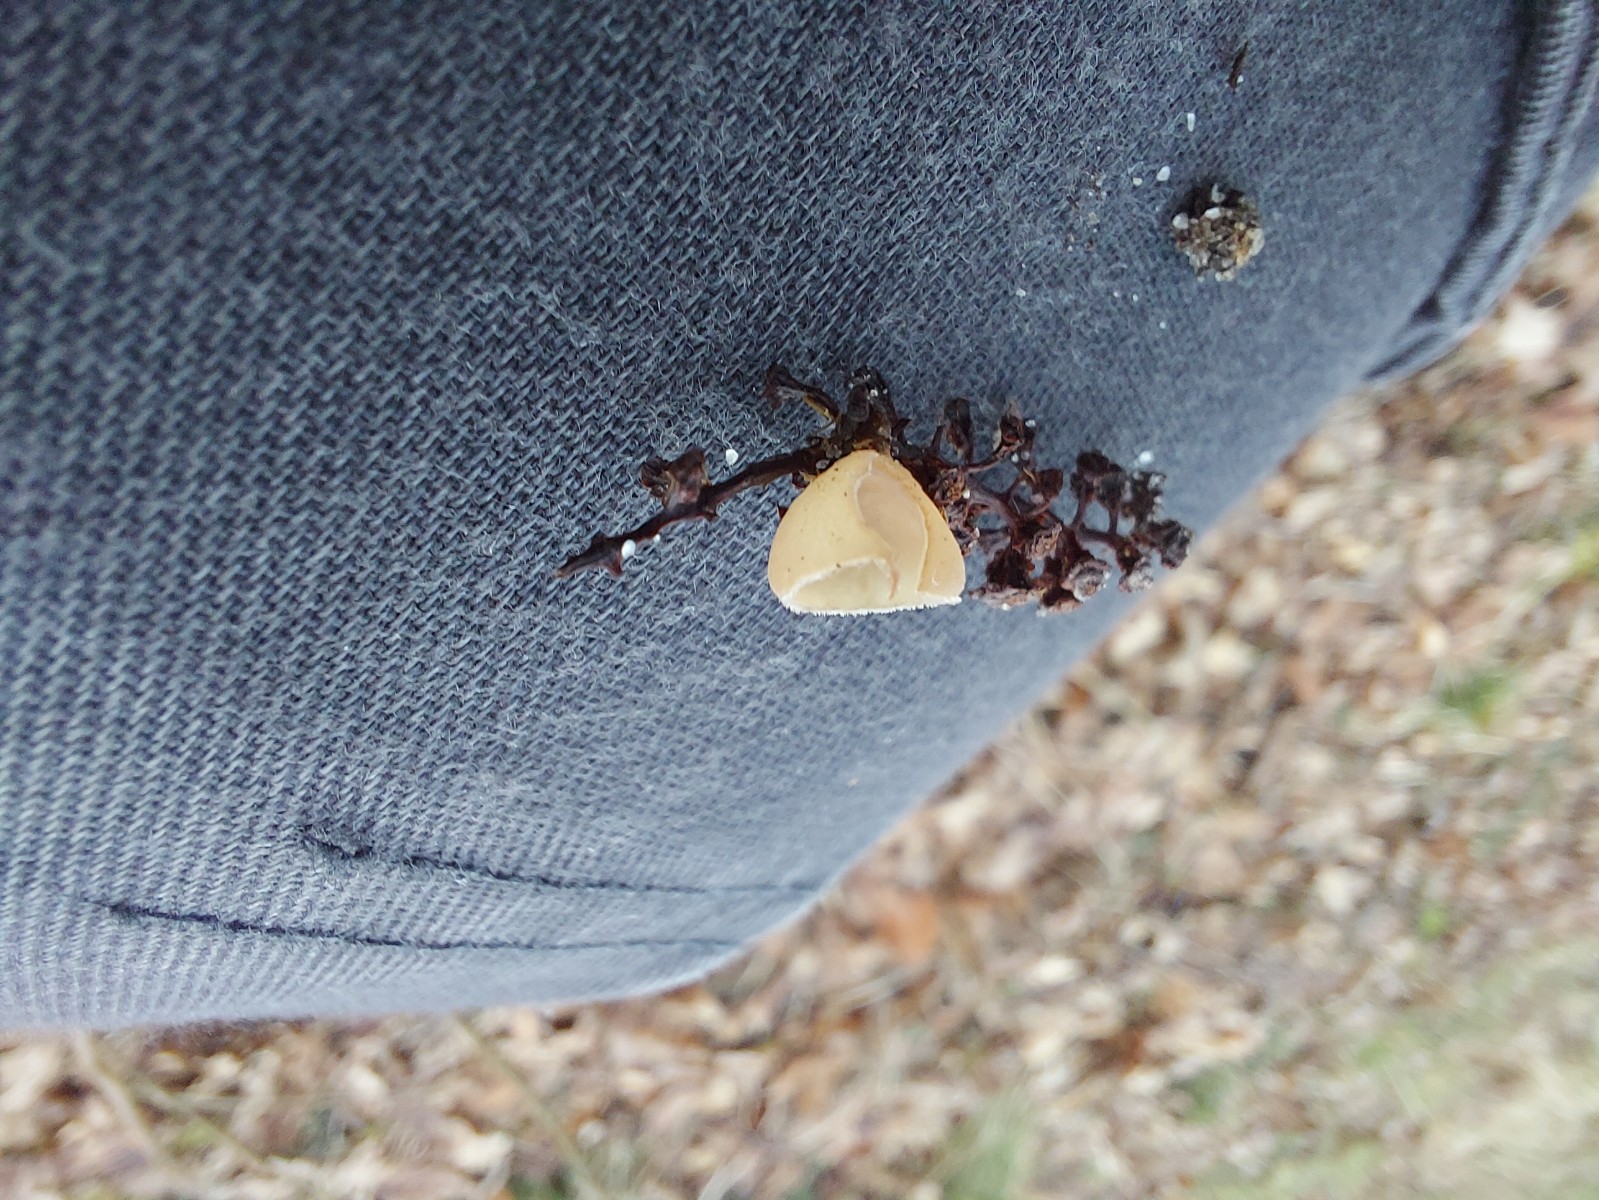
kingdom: Fungi
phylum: Ascomycota
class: Leotiomycetes
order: Helotiales
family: Sclerotiniaceae
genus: Ciboria
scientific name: Ciboria amentacea
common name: ellerakle-knoldskive
